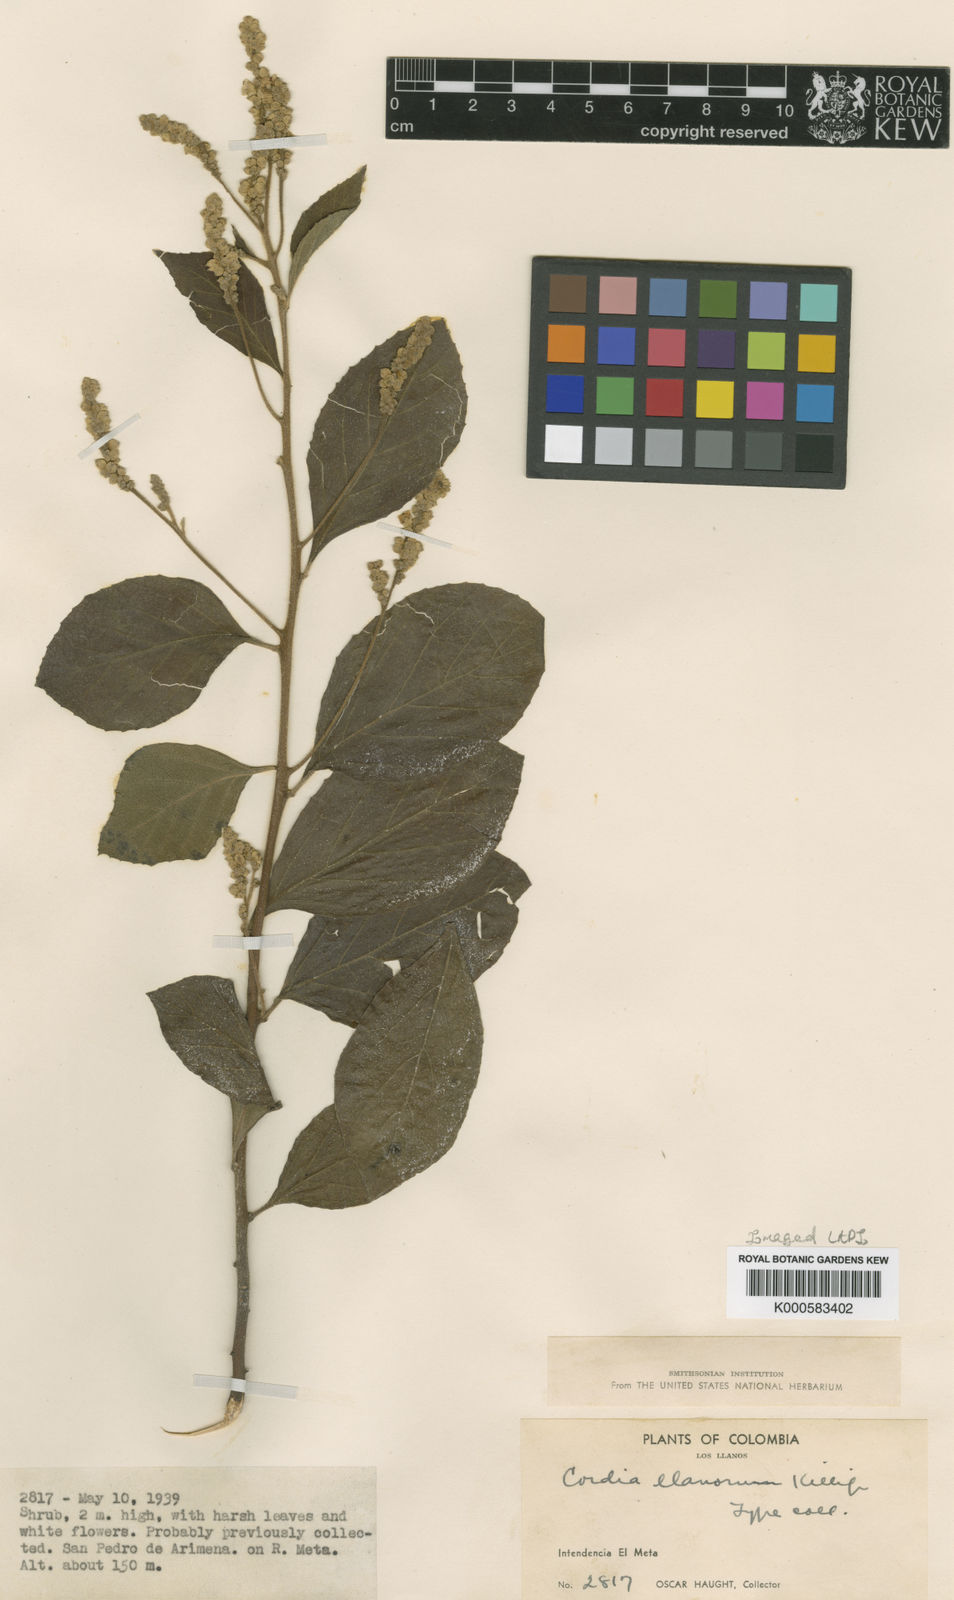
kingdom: Plantae
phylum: Tracheophyta
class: Magnoliopsida
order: Boraginales
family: Cordiaceae
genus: Cordia
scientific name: Cordia
